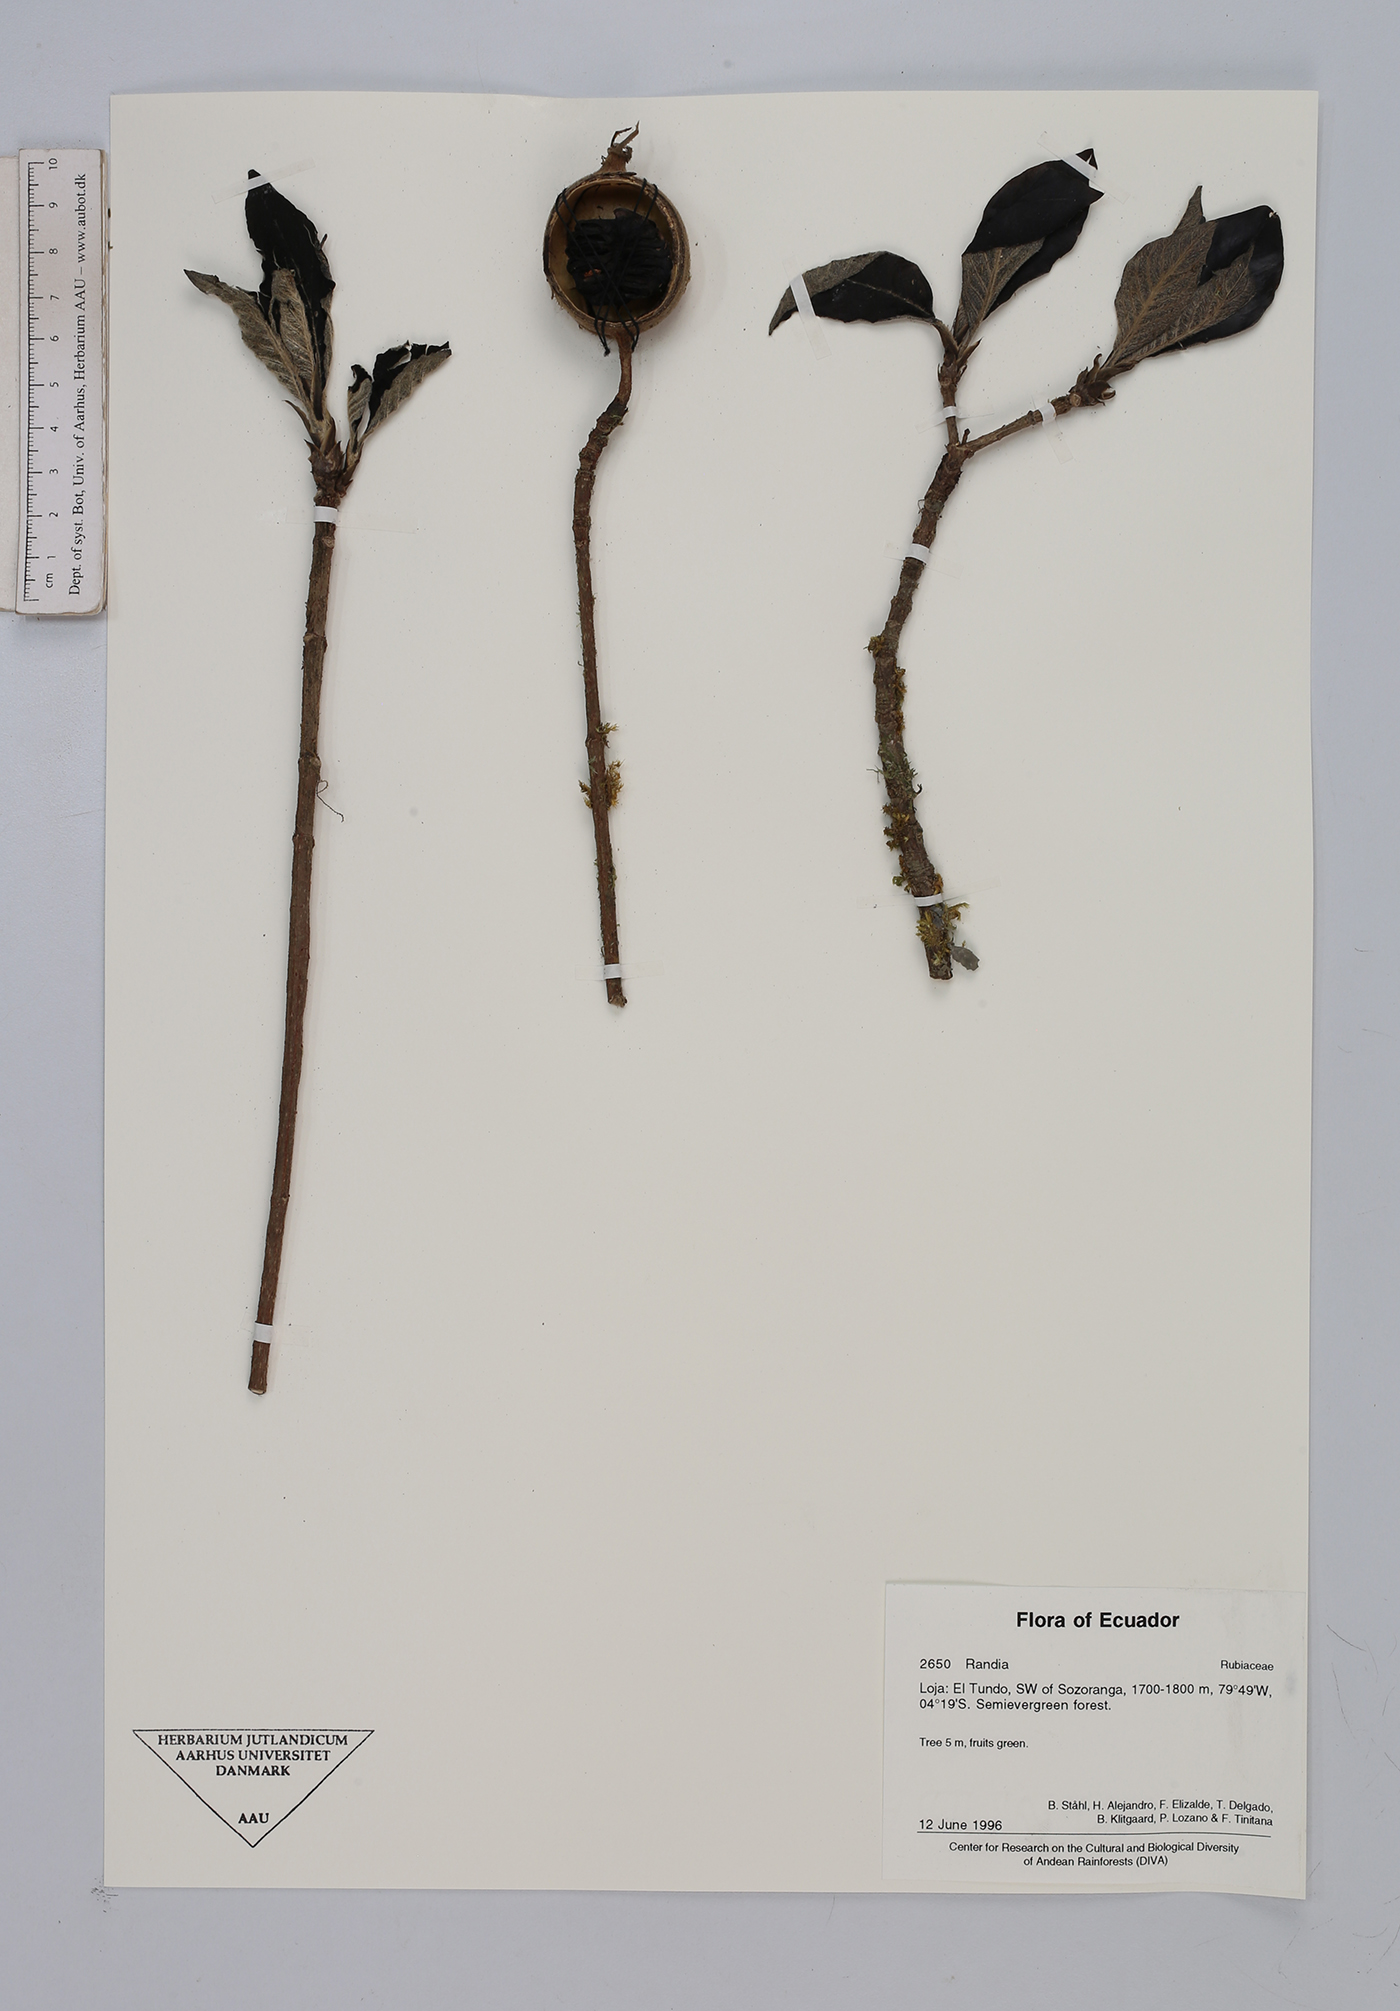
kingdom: Plantae
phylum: Tracheophyta
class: Magnoliopsida
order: Gentianales
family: Rubiaceae
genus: Randia
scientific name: Randia
